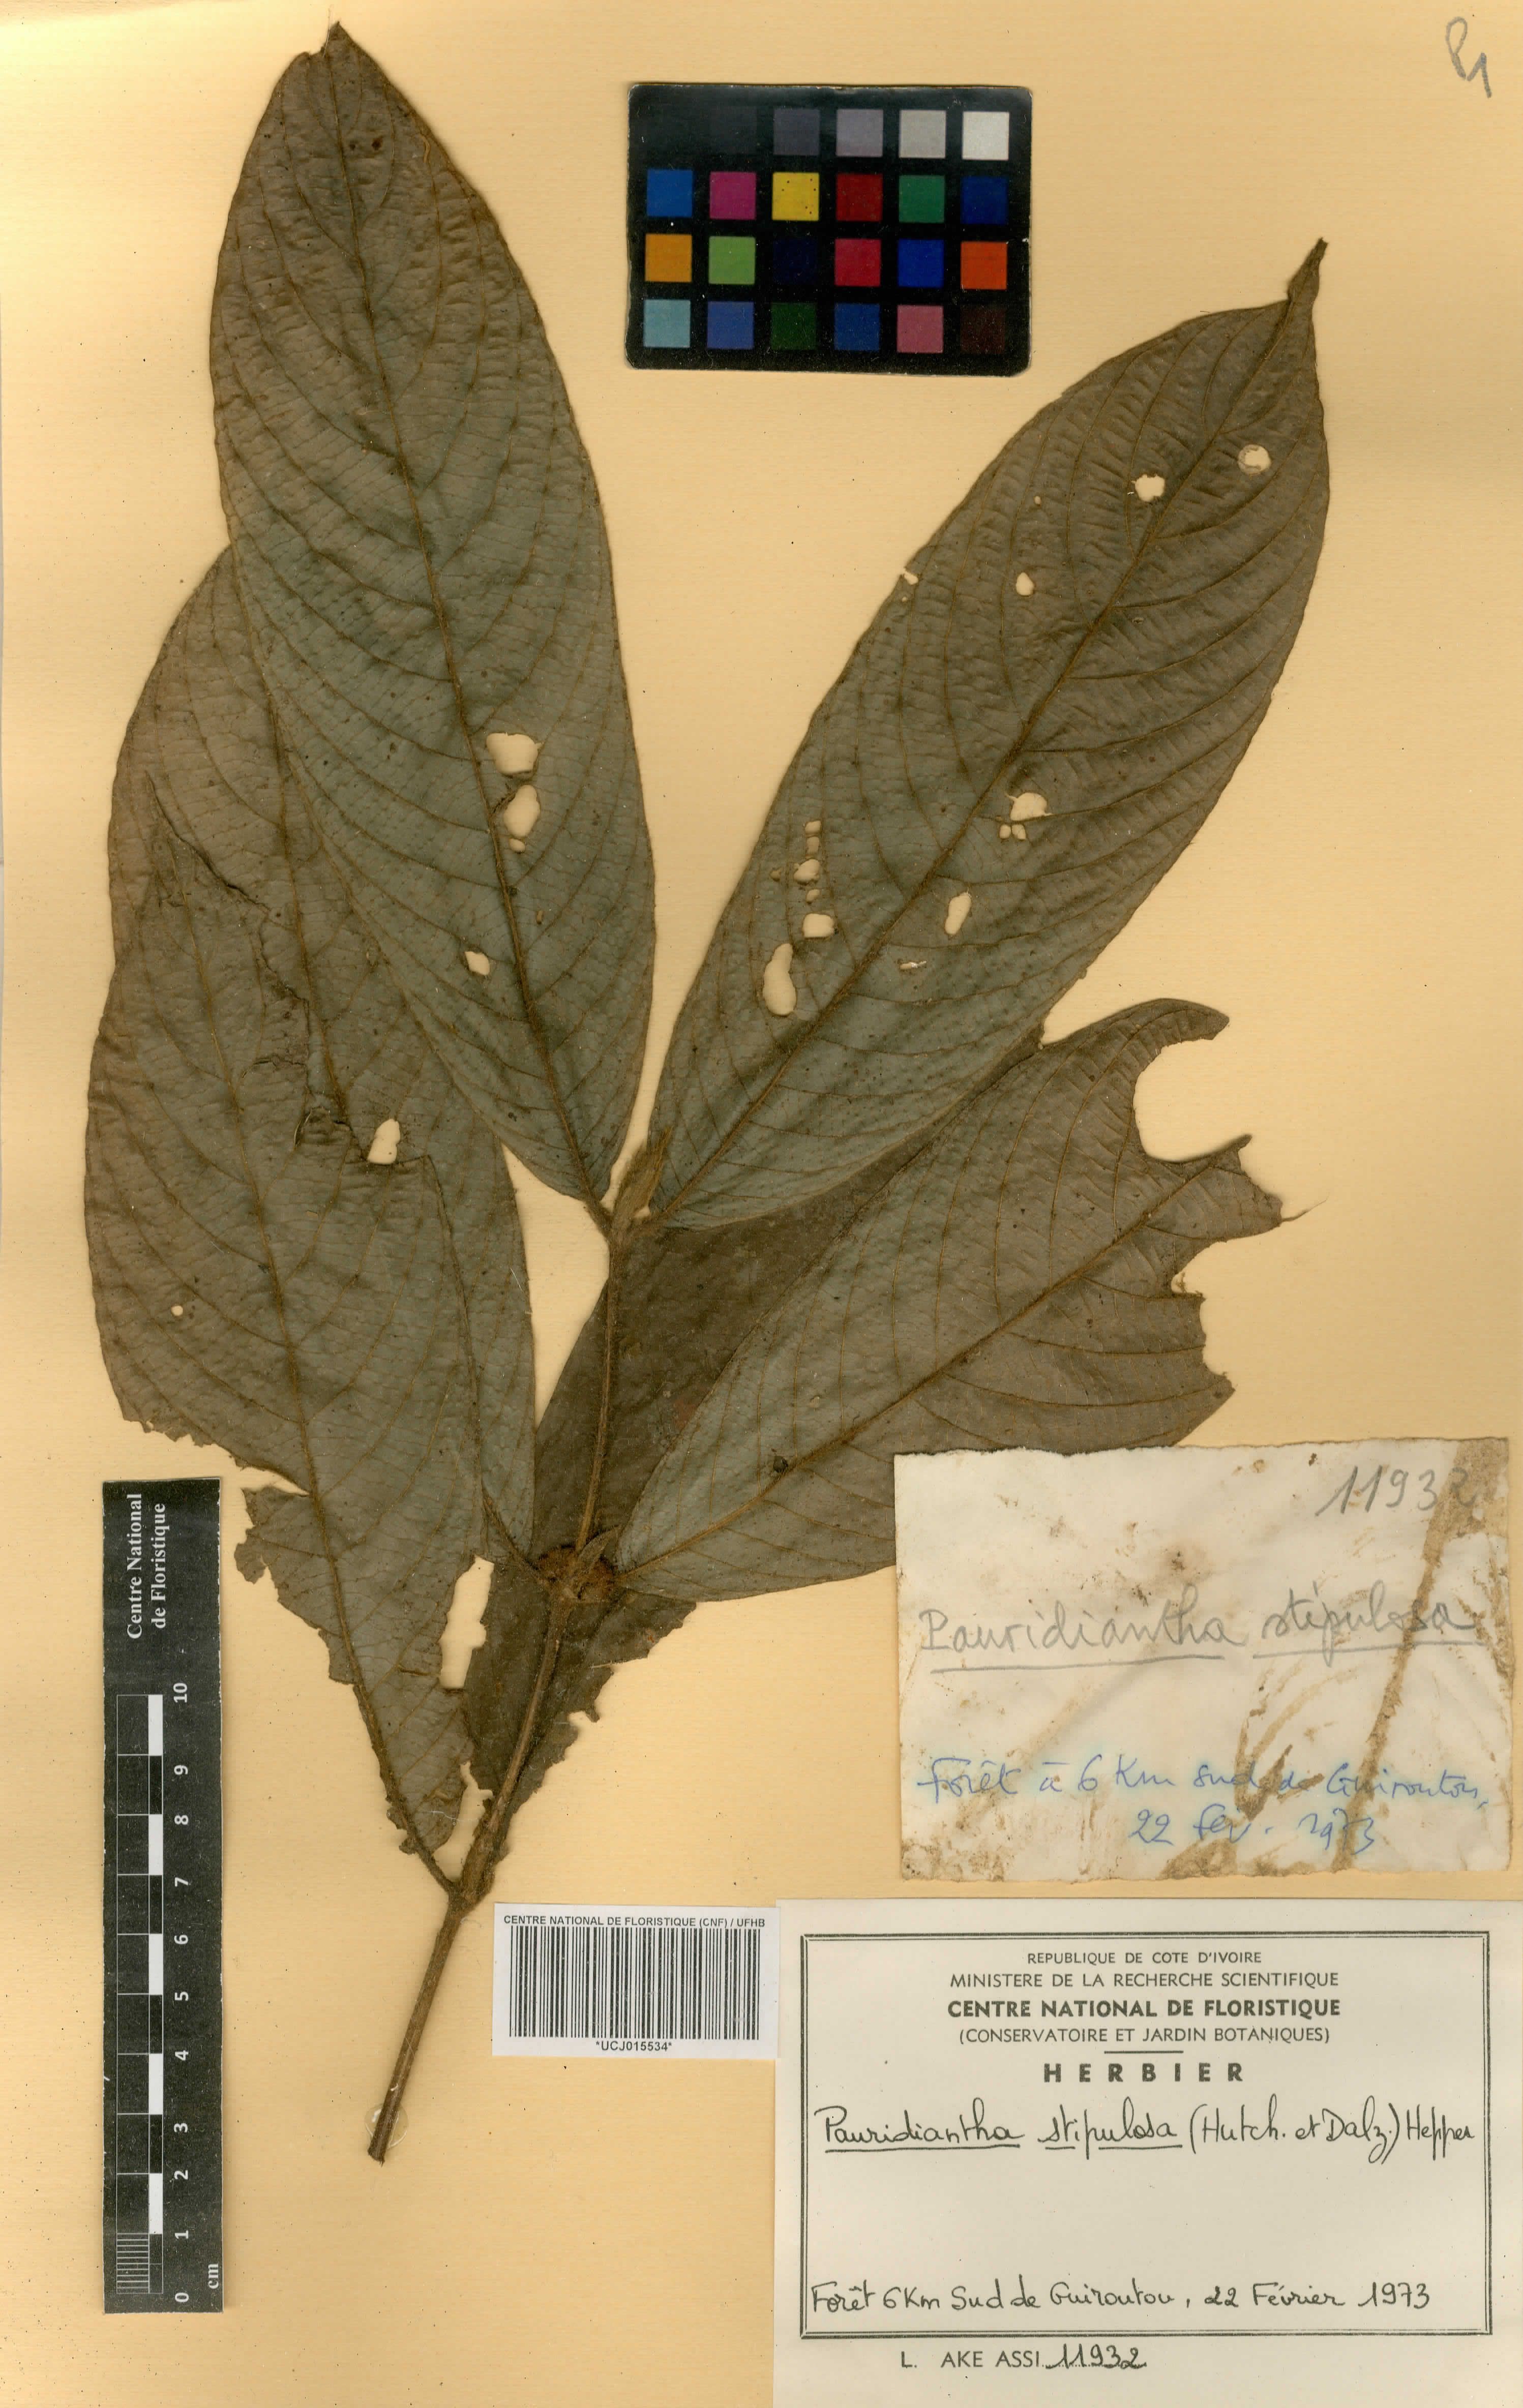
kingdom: Plantae
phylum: Tracheophyta
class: Magnoliopsida
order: Gentianales
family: Rubiaceae
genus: Pauridiantha
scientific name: Pauridiantha stipulosa
